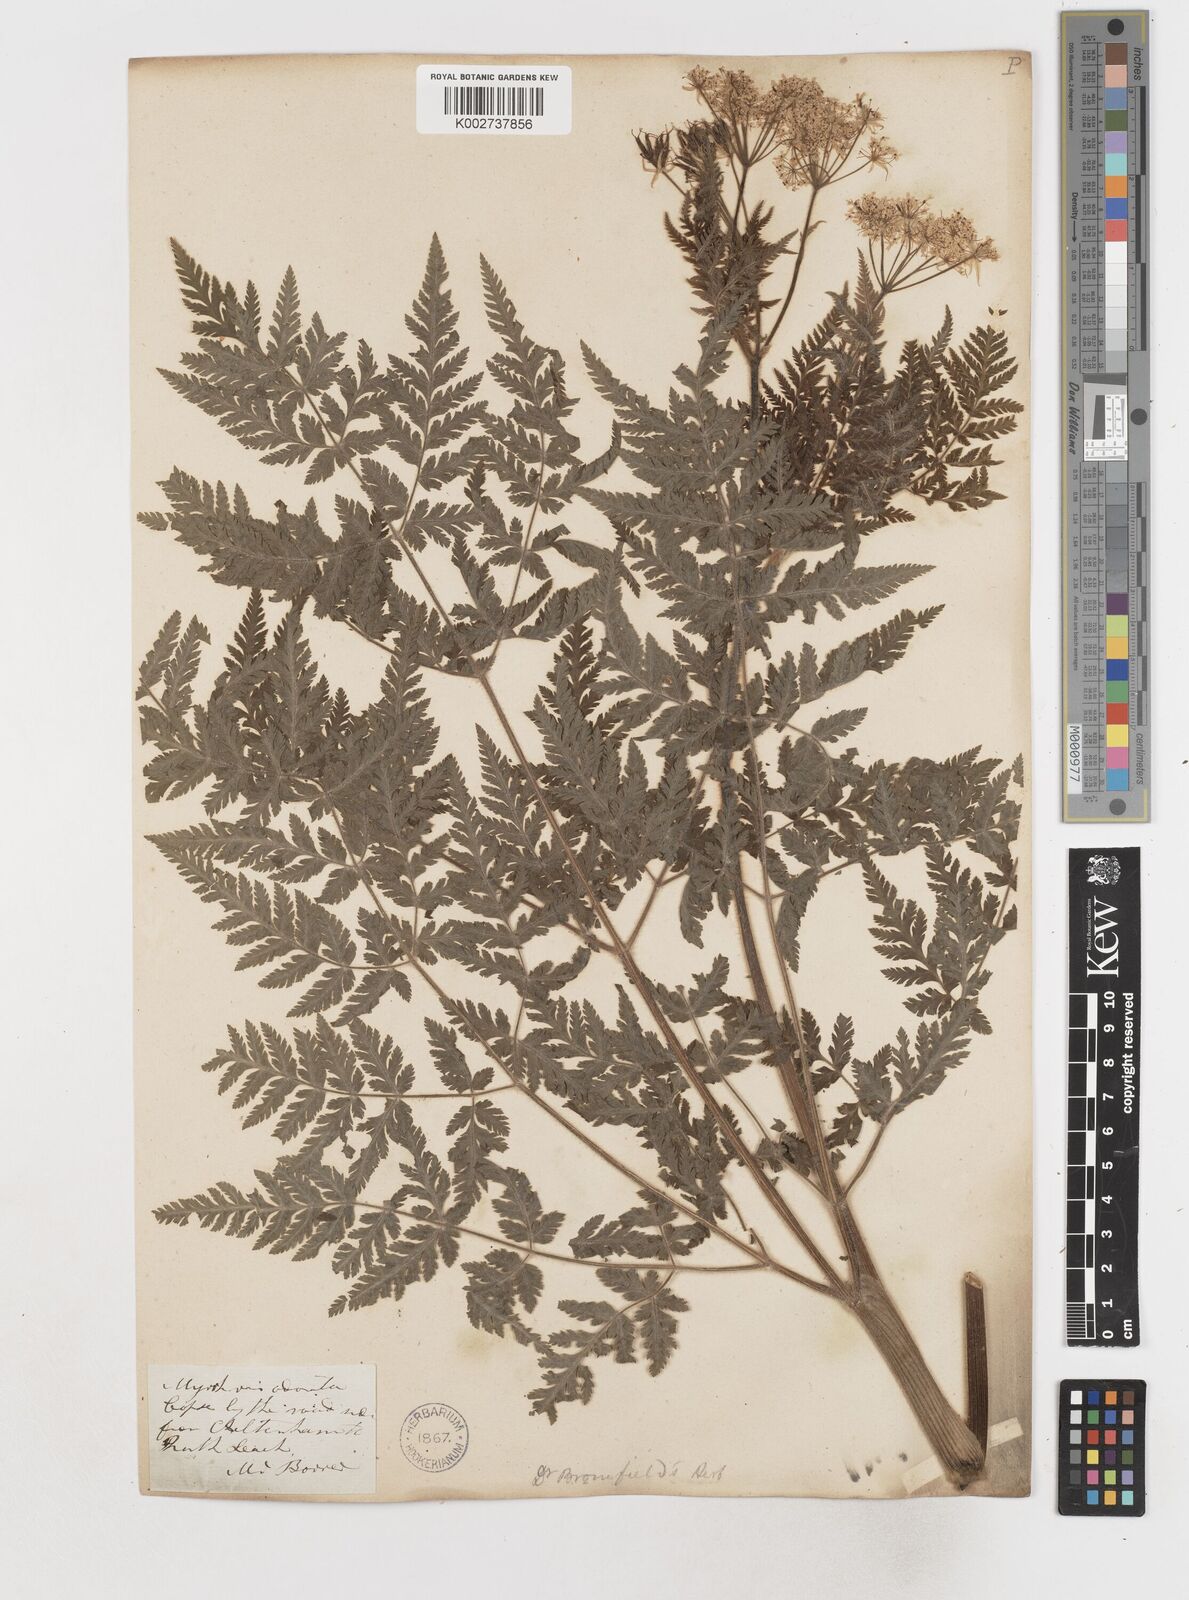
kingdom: Plantae
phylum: Tracheophyta
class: Magnoliopsida
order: Apiales
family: Apiaceae
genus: Myrrhis
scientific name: Myrrhis odorata
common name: Sweet cicely
